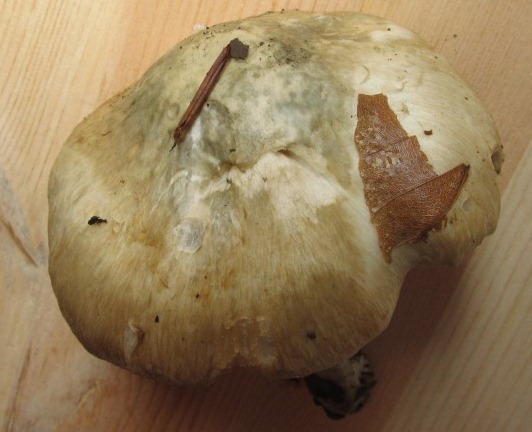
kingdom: Fungi
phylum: Basidiomycota
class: Agaricomycetes
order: Agaricales
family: Inocybaceae
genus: Inocybe
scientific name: Inocybe corydalina
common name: grønpuklet trævlhat
